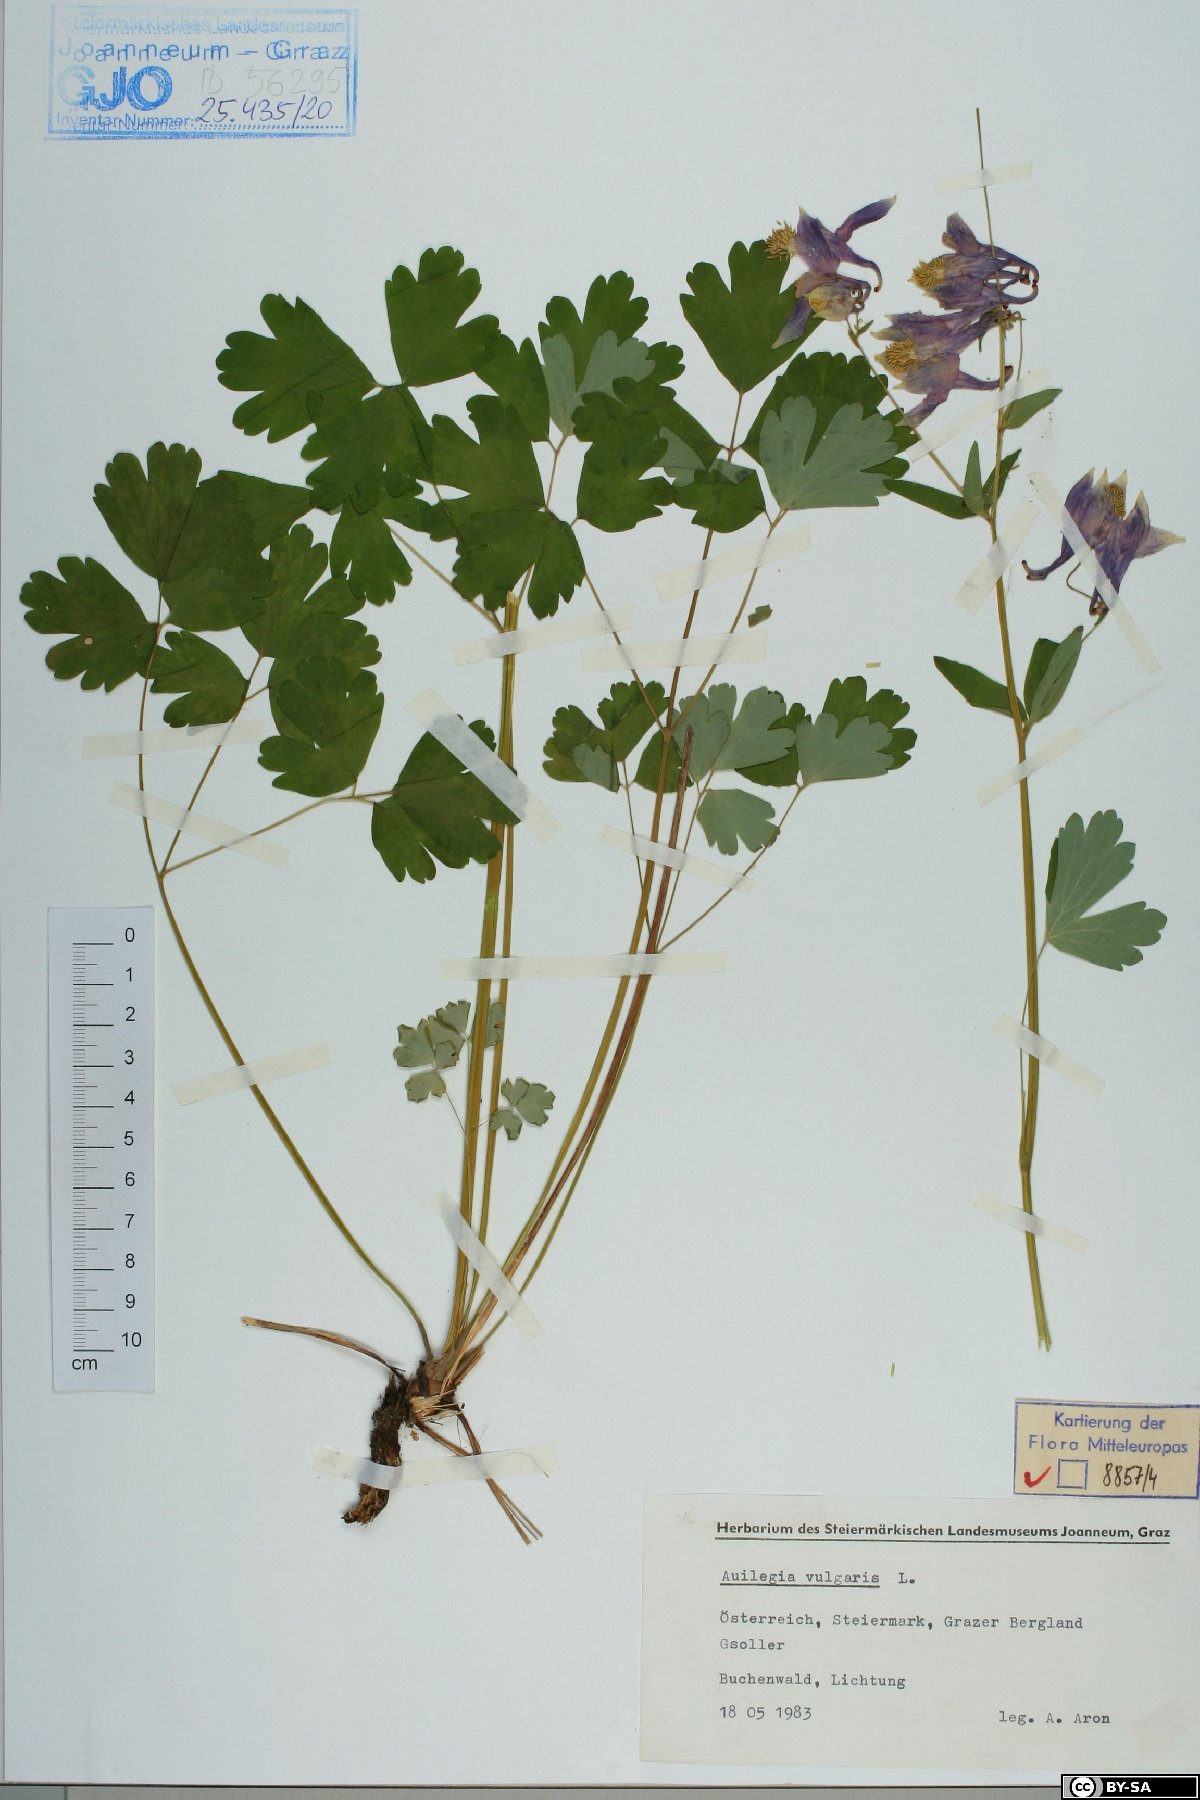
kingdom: Plantae
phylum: Tracheophyta
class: Magnoliopsida
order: Ranunculales
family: Ranunculaceae
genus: Aquilegia
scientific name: Aquilegia vulgaris
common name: Columbine
